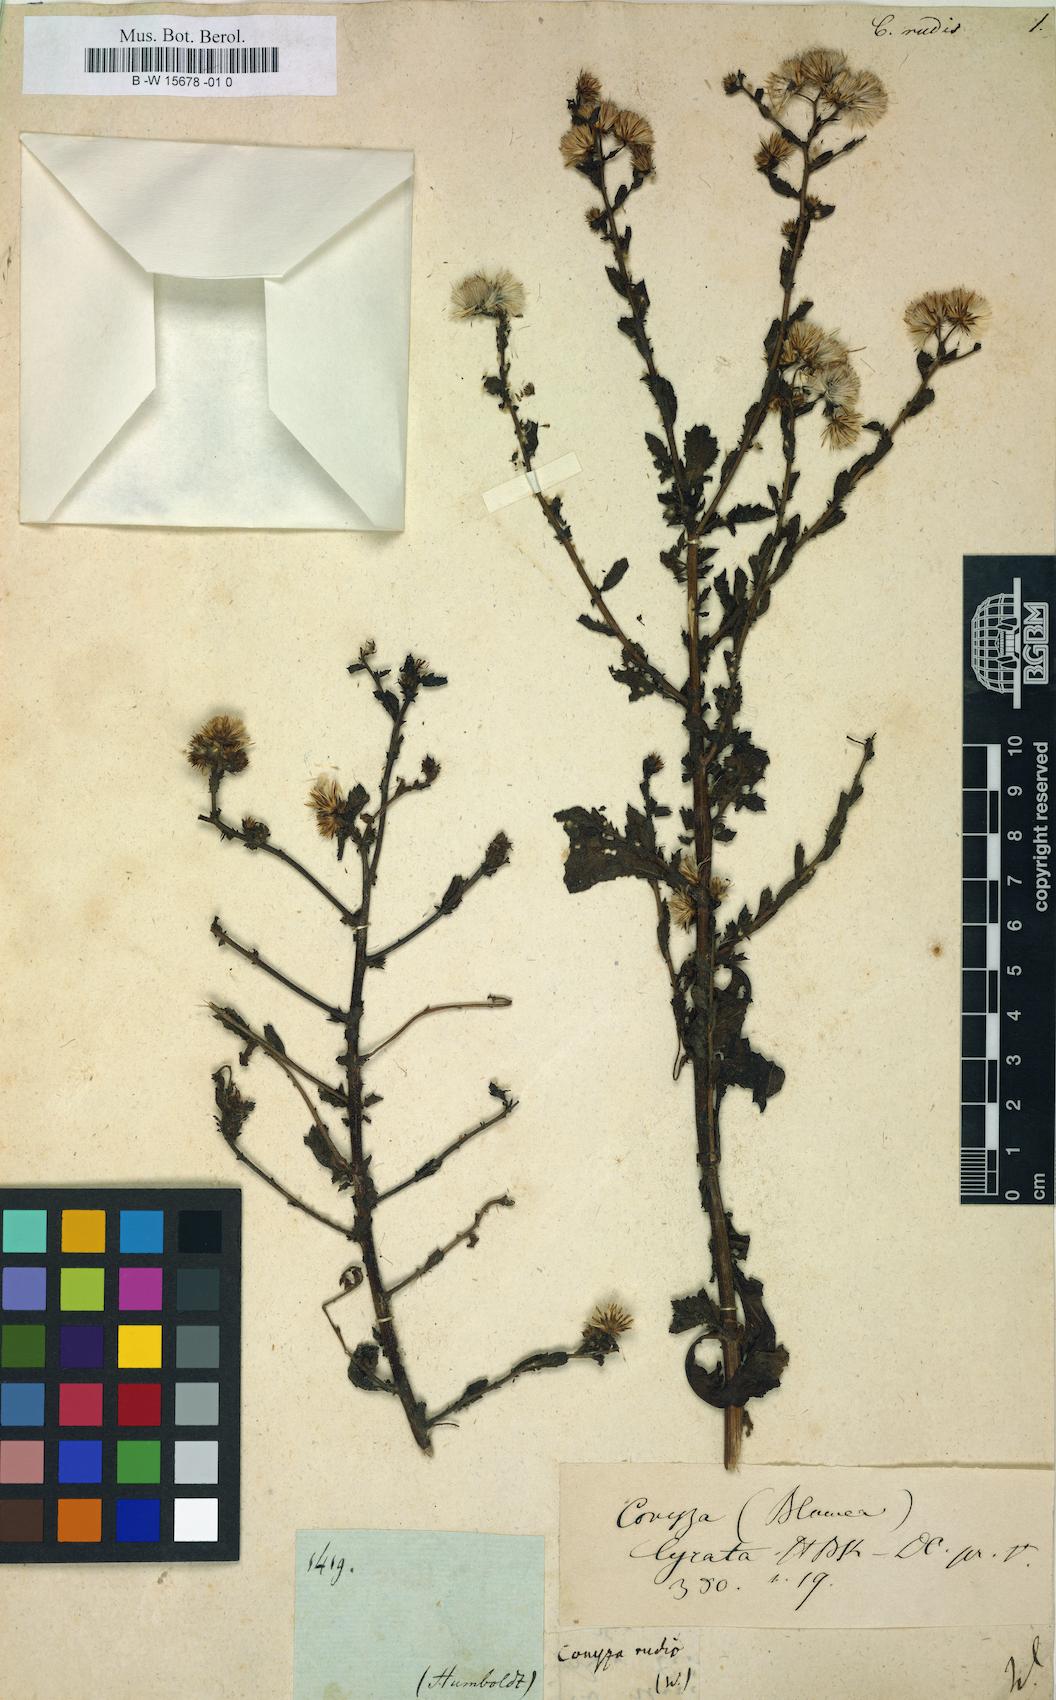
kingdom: Plantae
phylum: Tracheophyta
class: Magnoliopsida
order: Asterales
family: Asteraceae
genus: Pseudoconyza
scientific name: Pseudoconyza viscosa
